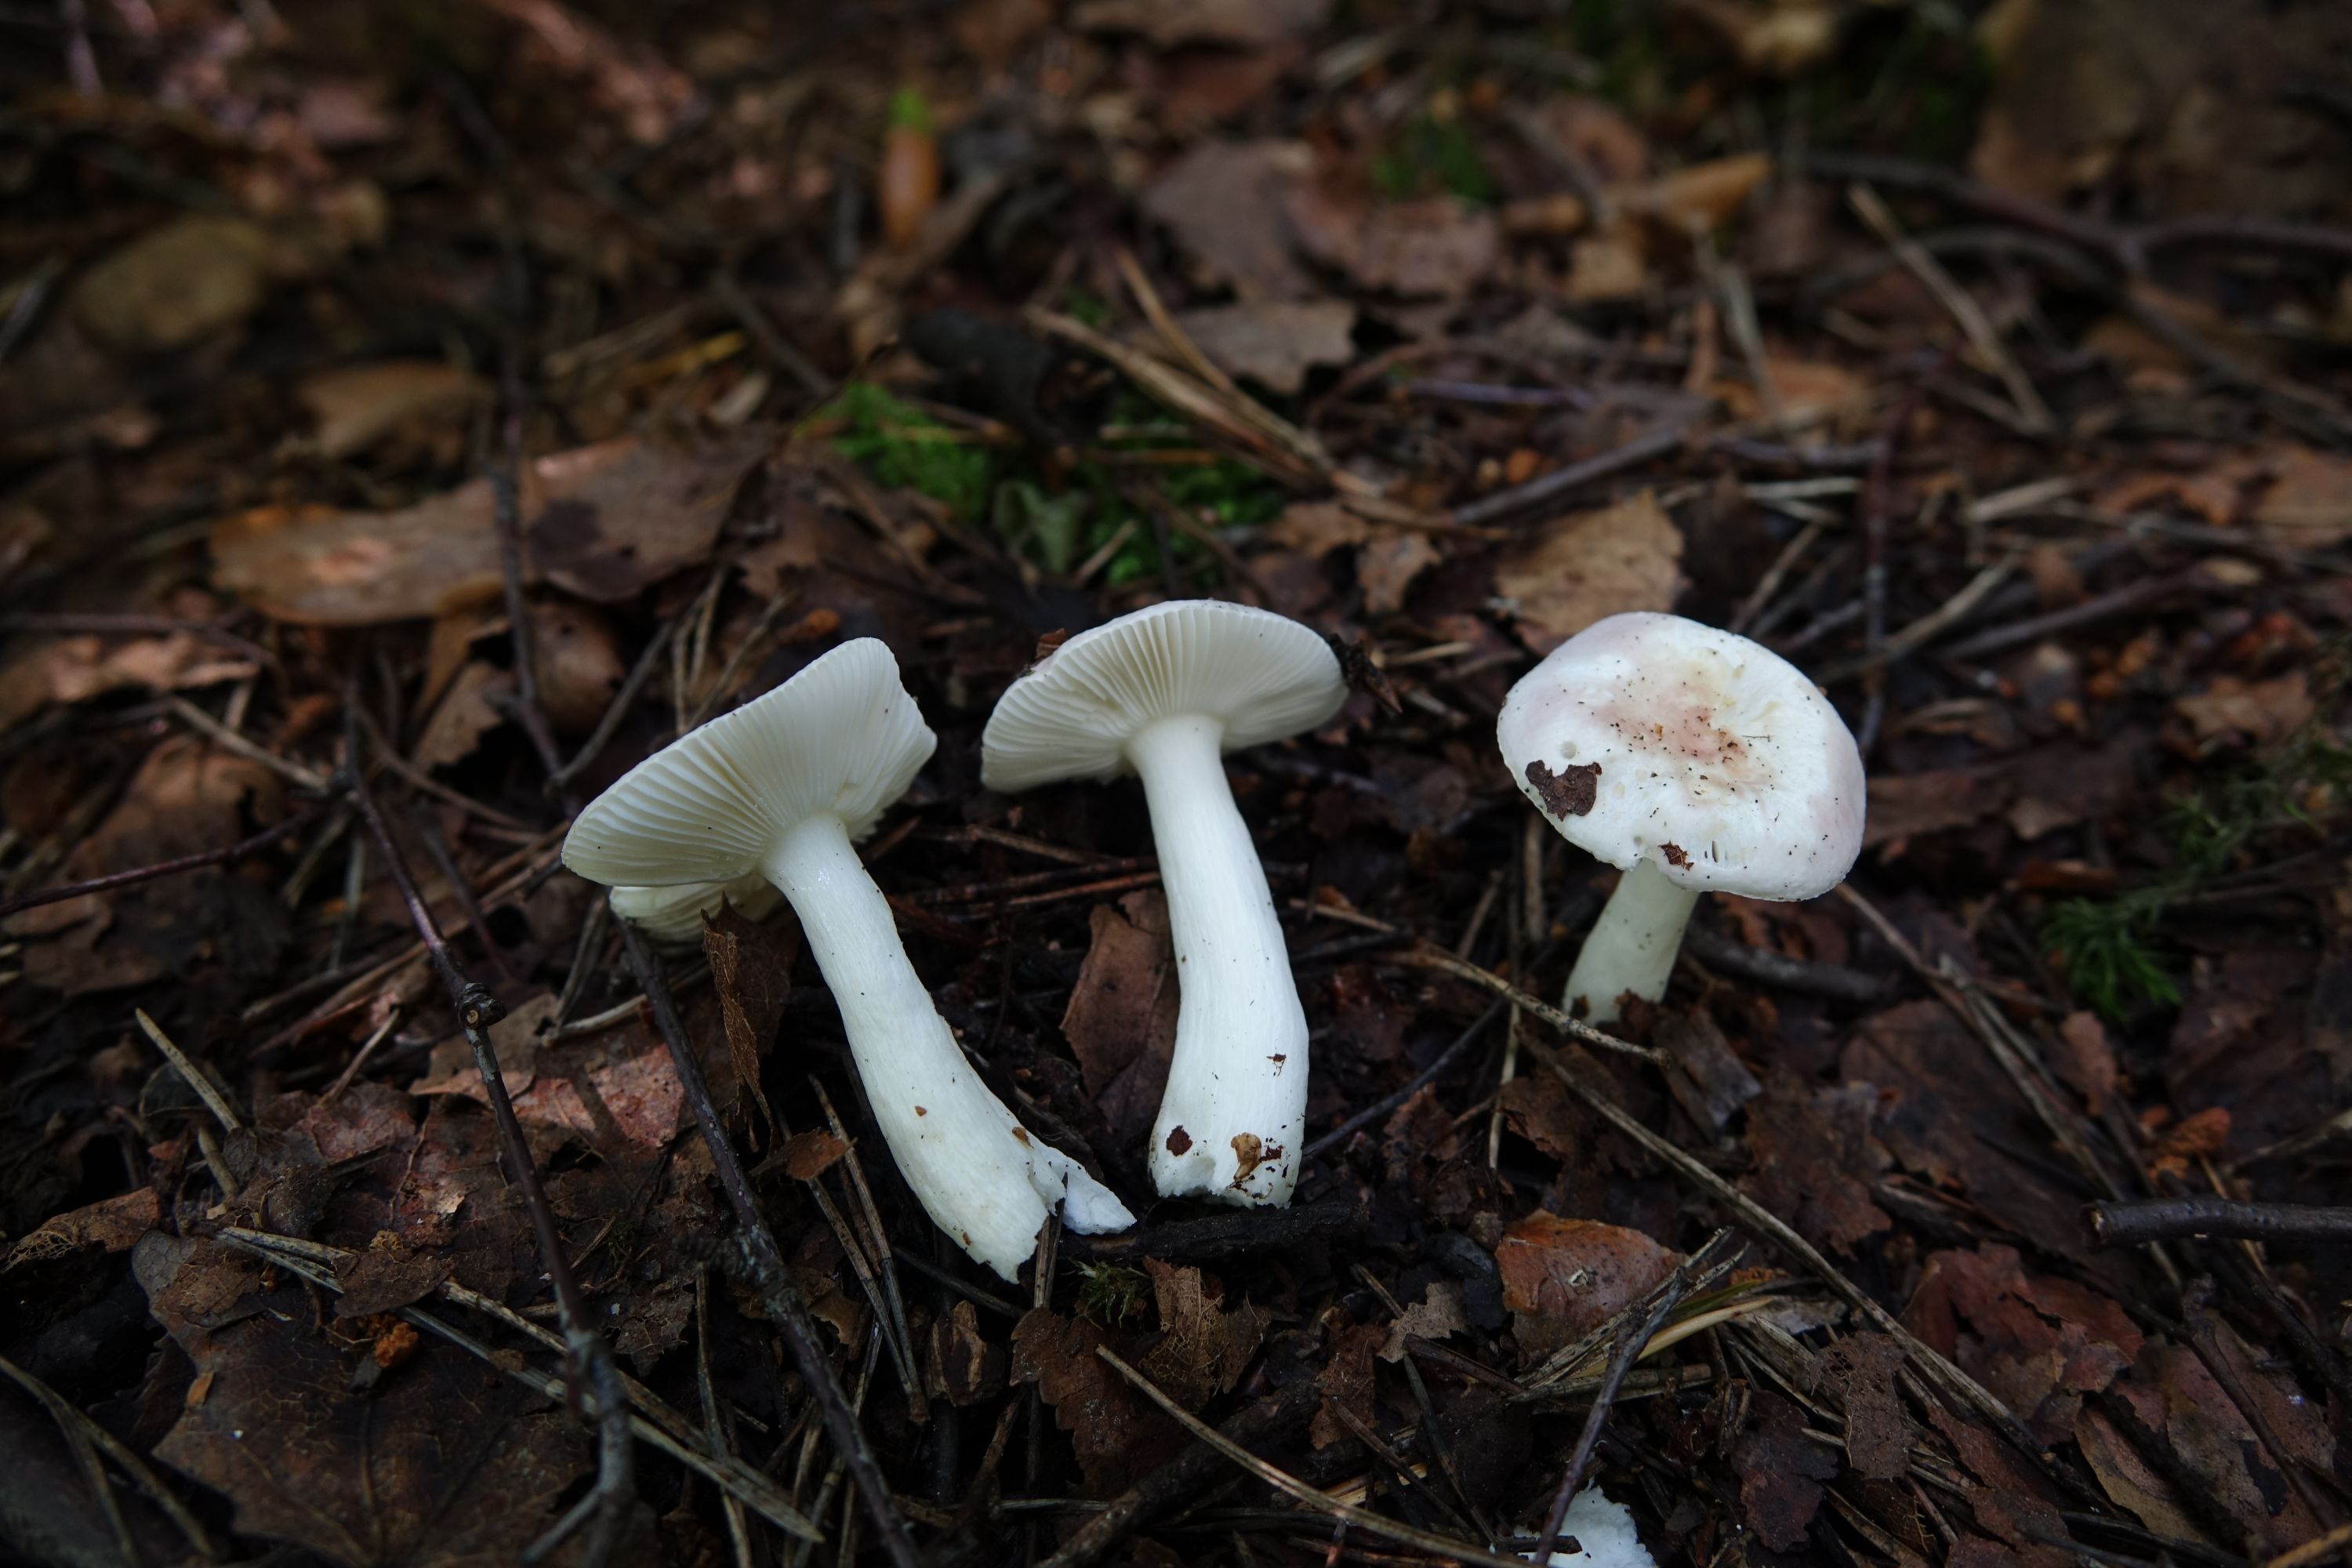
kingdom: Fungi
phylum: Basidiomycota
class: Agaricomycetes
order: Russulales
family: Russulaceae
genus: Russula
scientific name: Russula betularum
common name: Birch brittlegill
